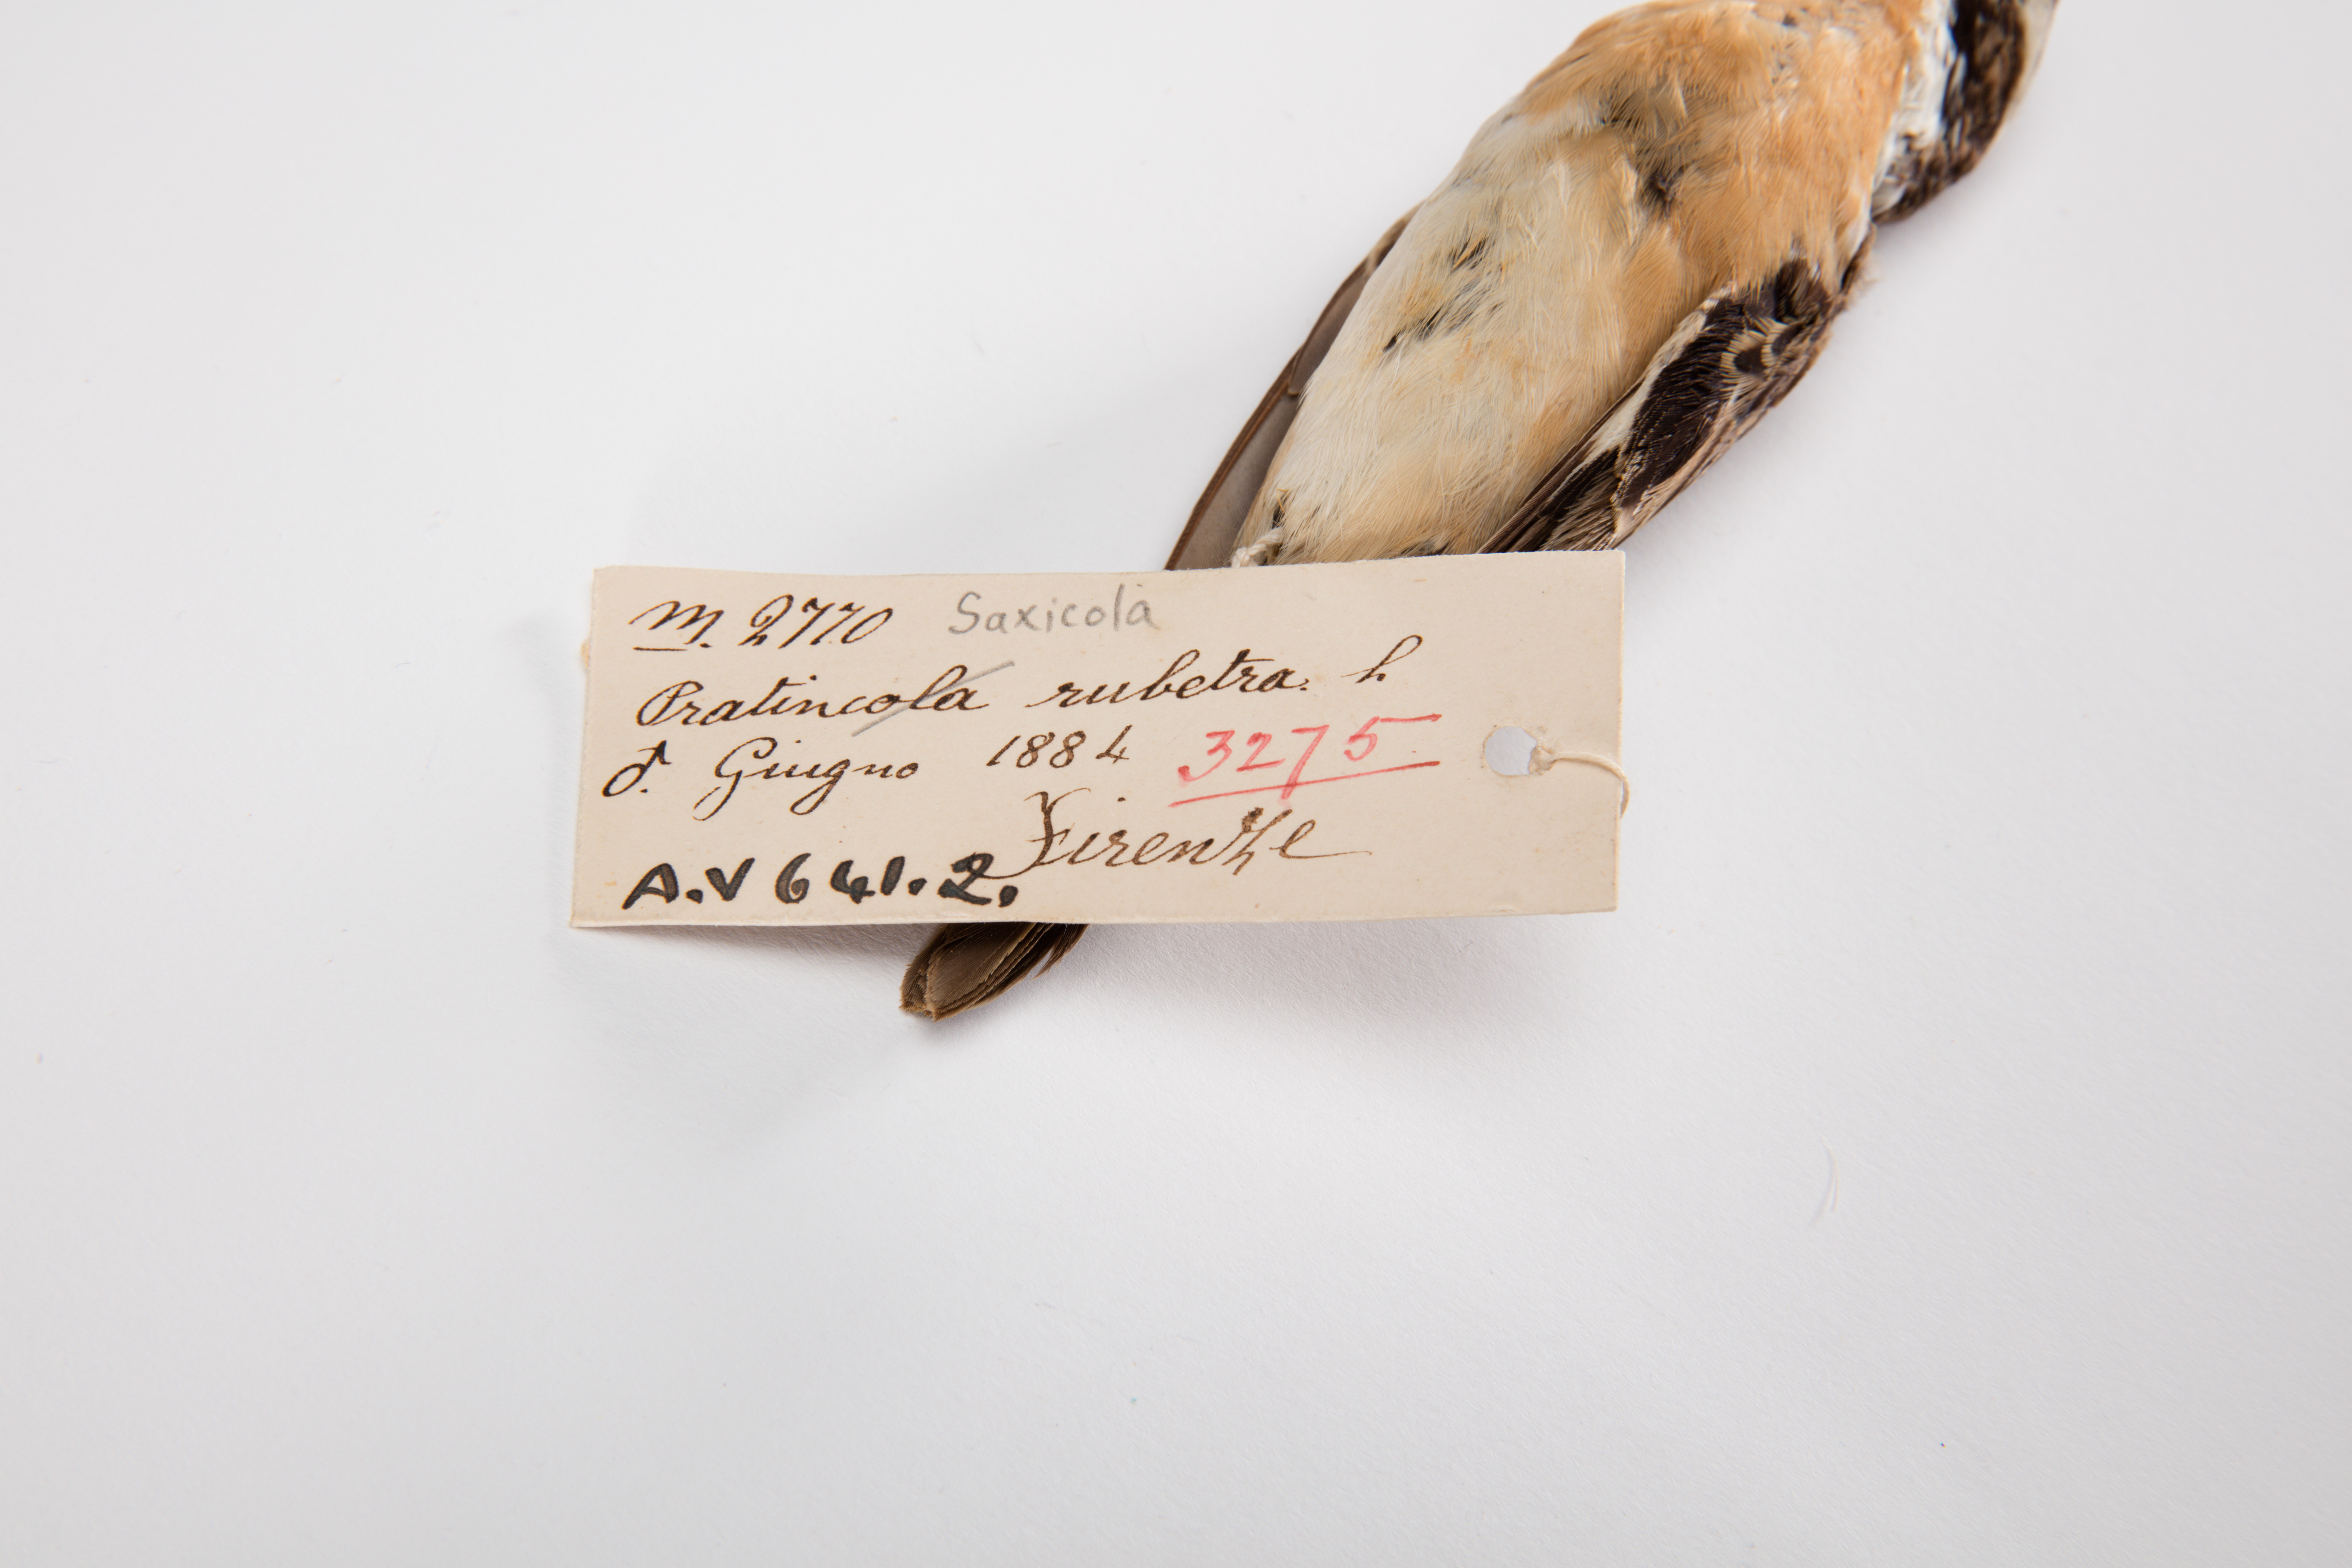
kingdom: Animalia
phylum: Chordata
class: Aves
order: Passeriformes
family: Muscicapidae
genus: Saxicola
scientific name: Saxicola rubetra
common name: Whinchat
